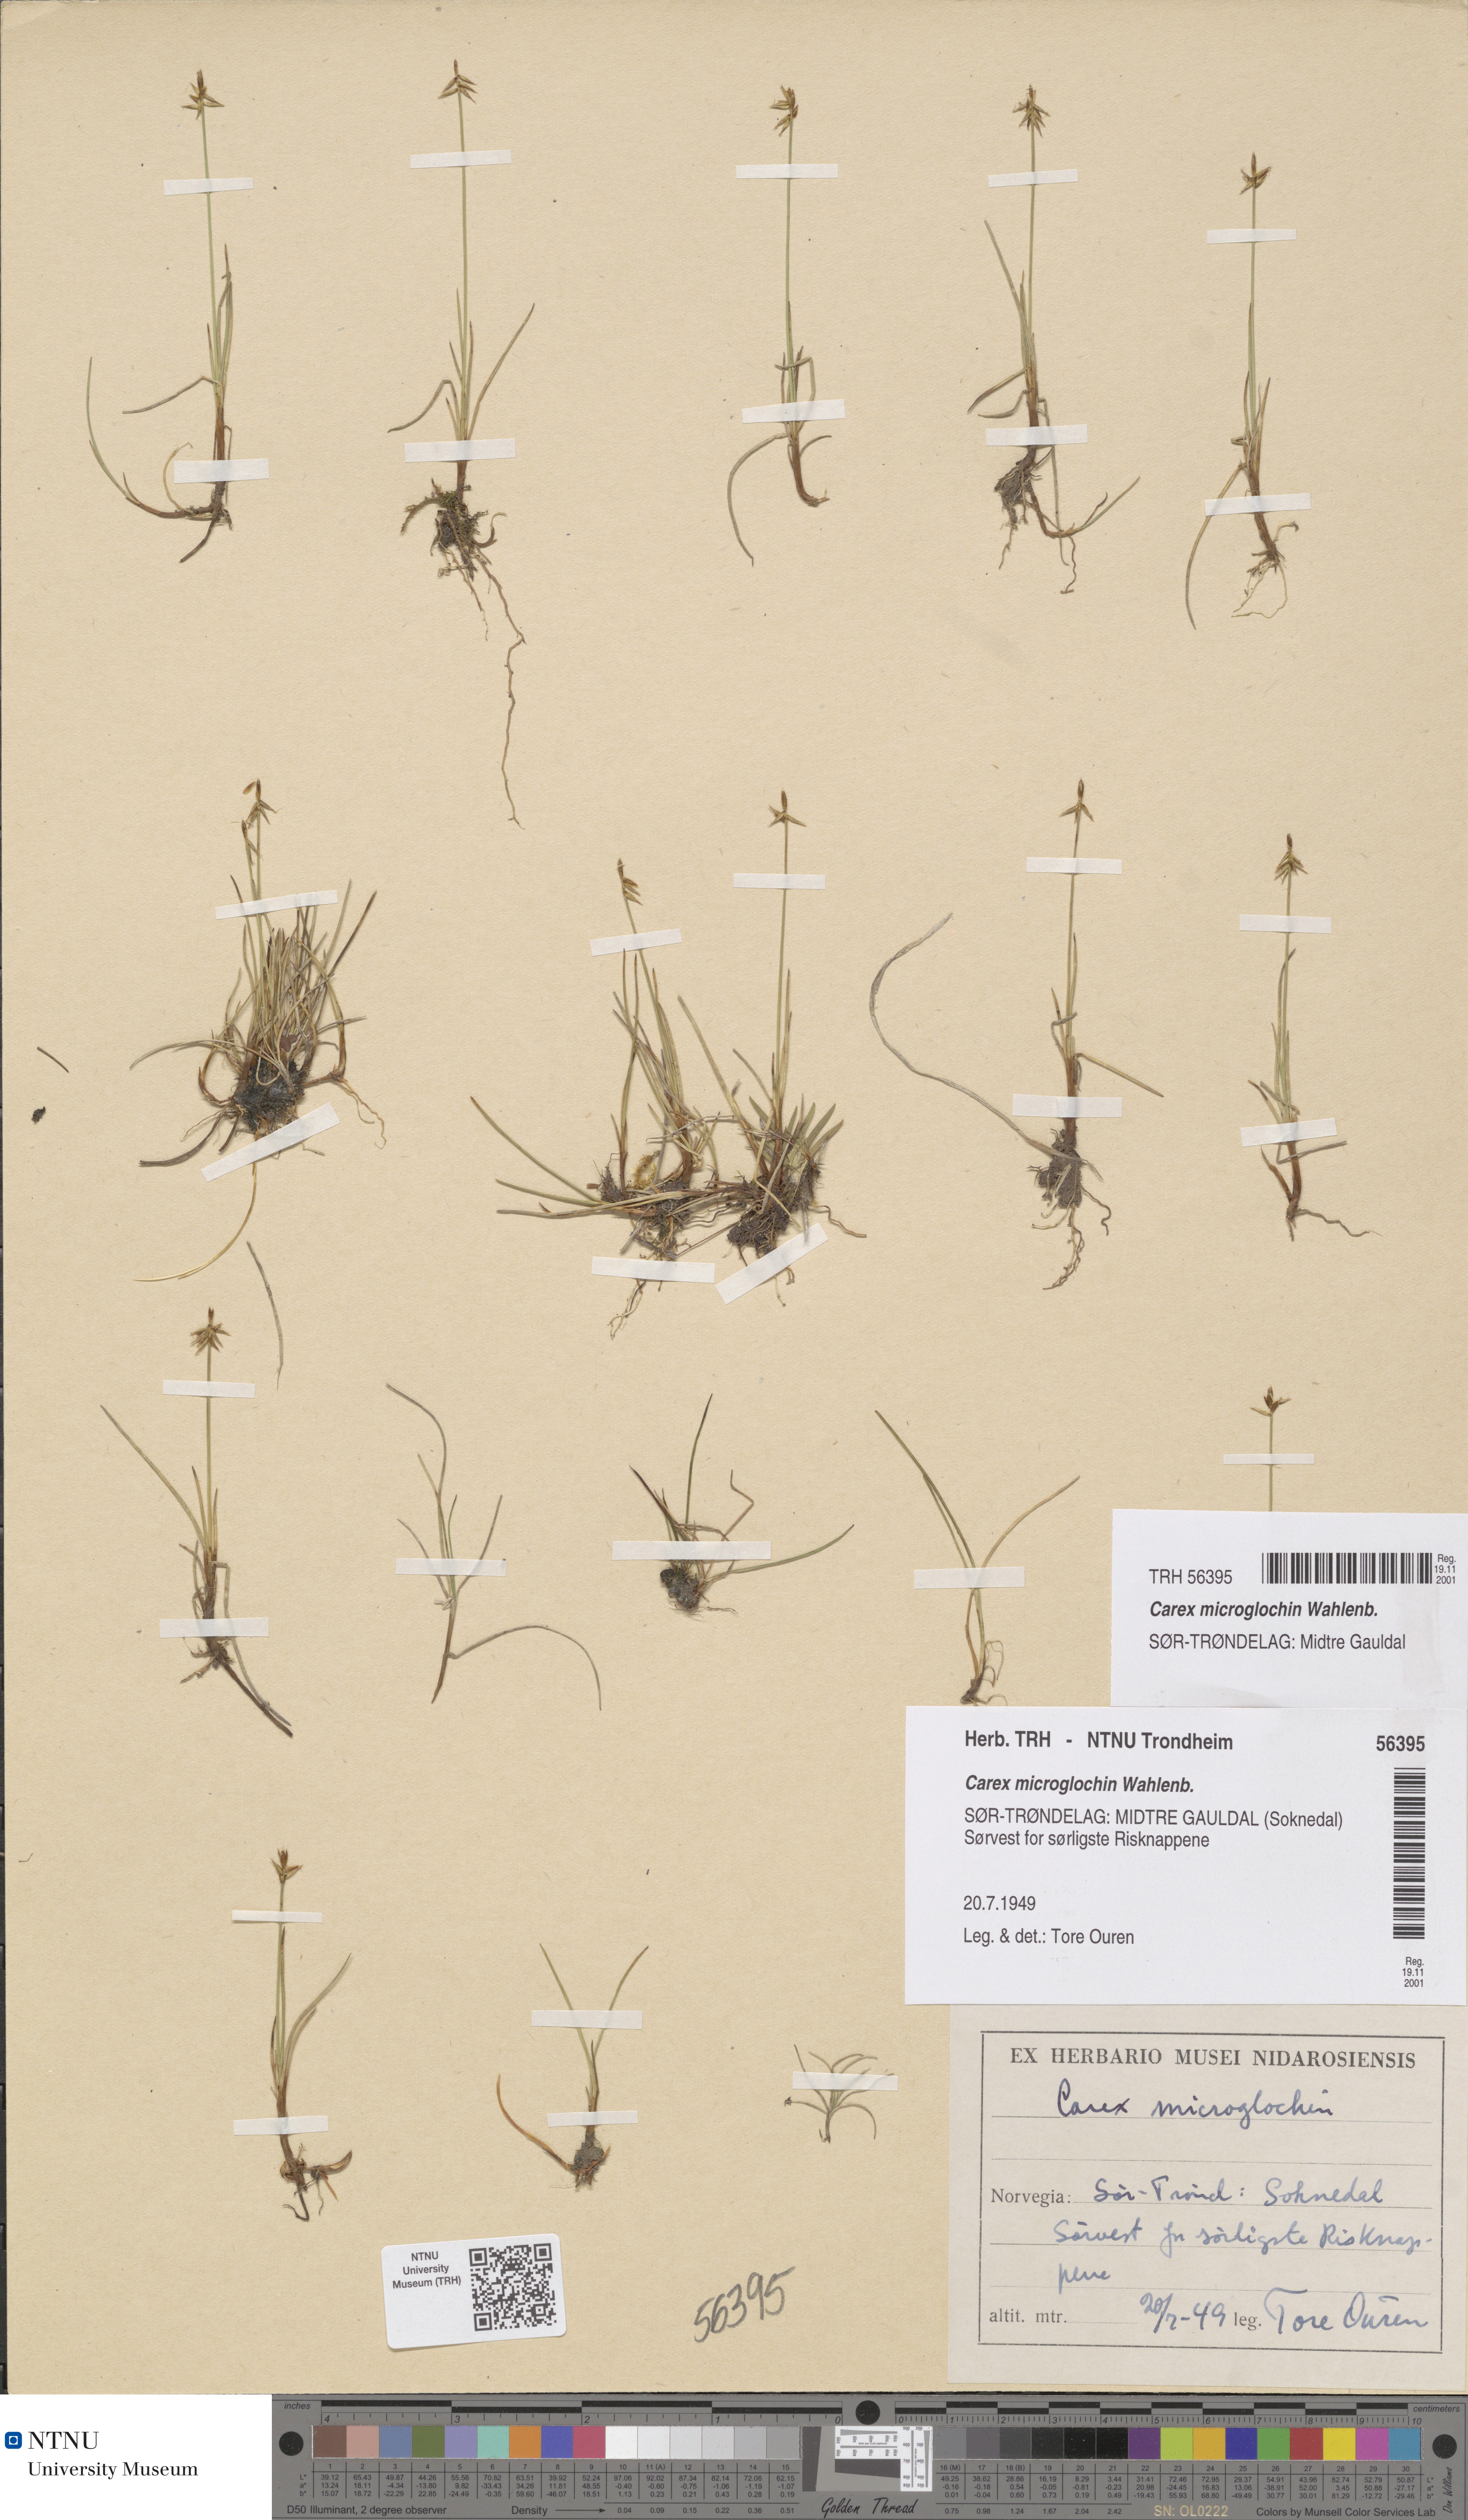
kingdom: Plantae
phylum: Tracheophyta
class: Liliopsida
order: Poales
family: Cyperaceae
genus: Carex
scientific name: Carex microglochin
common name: Bristle sedge
